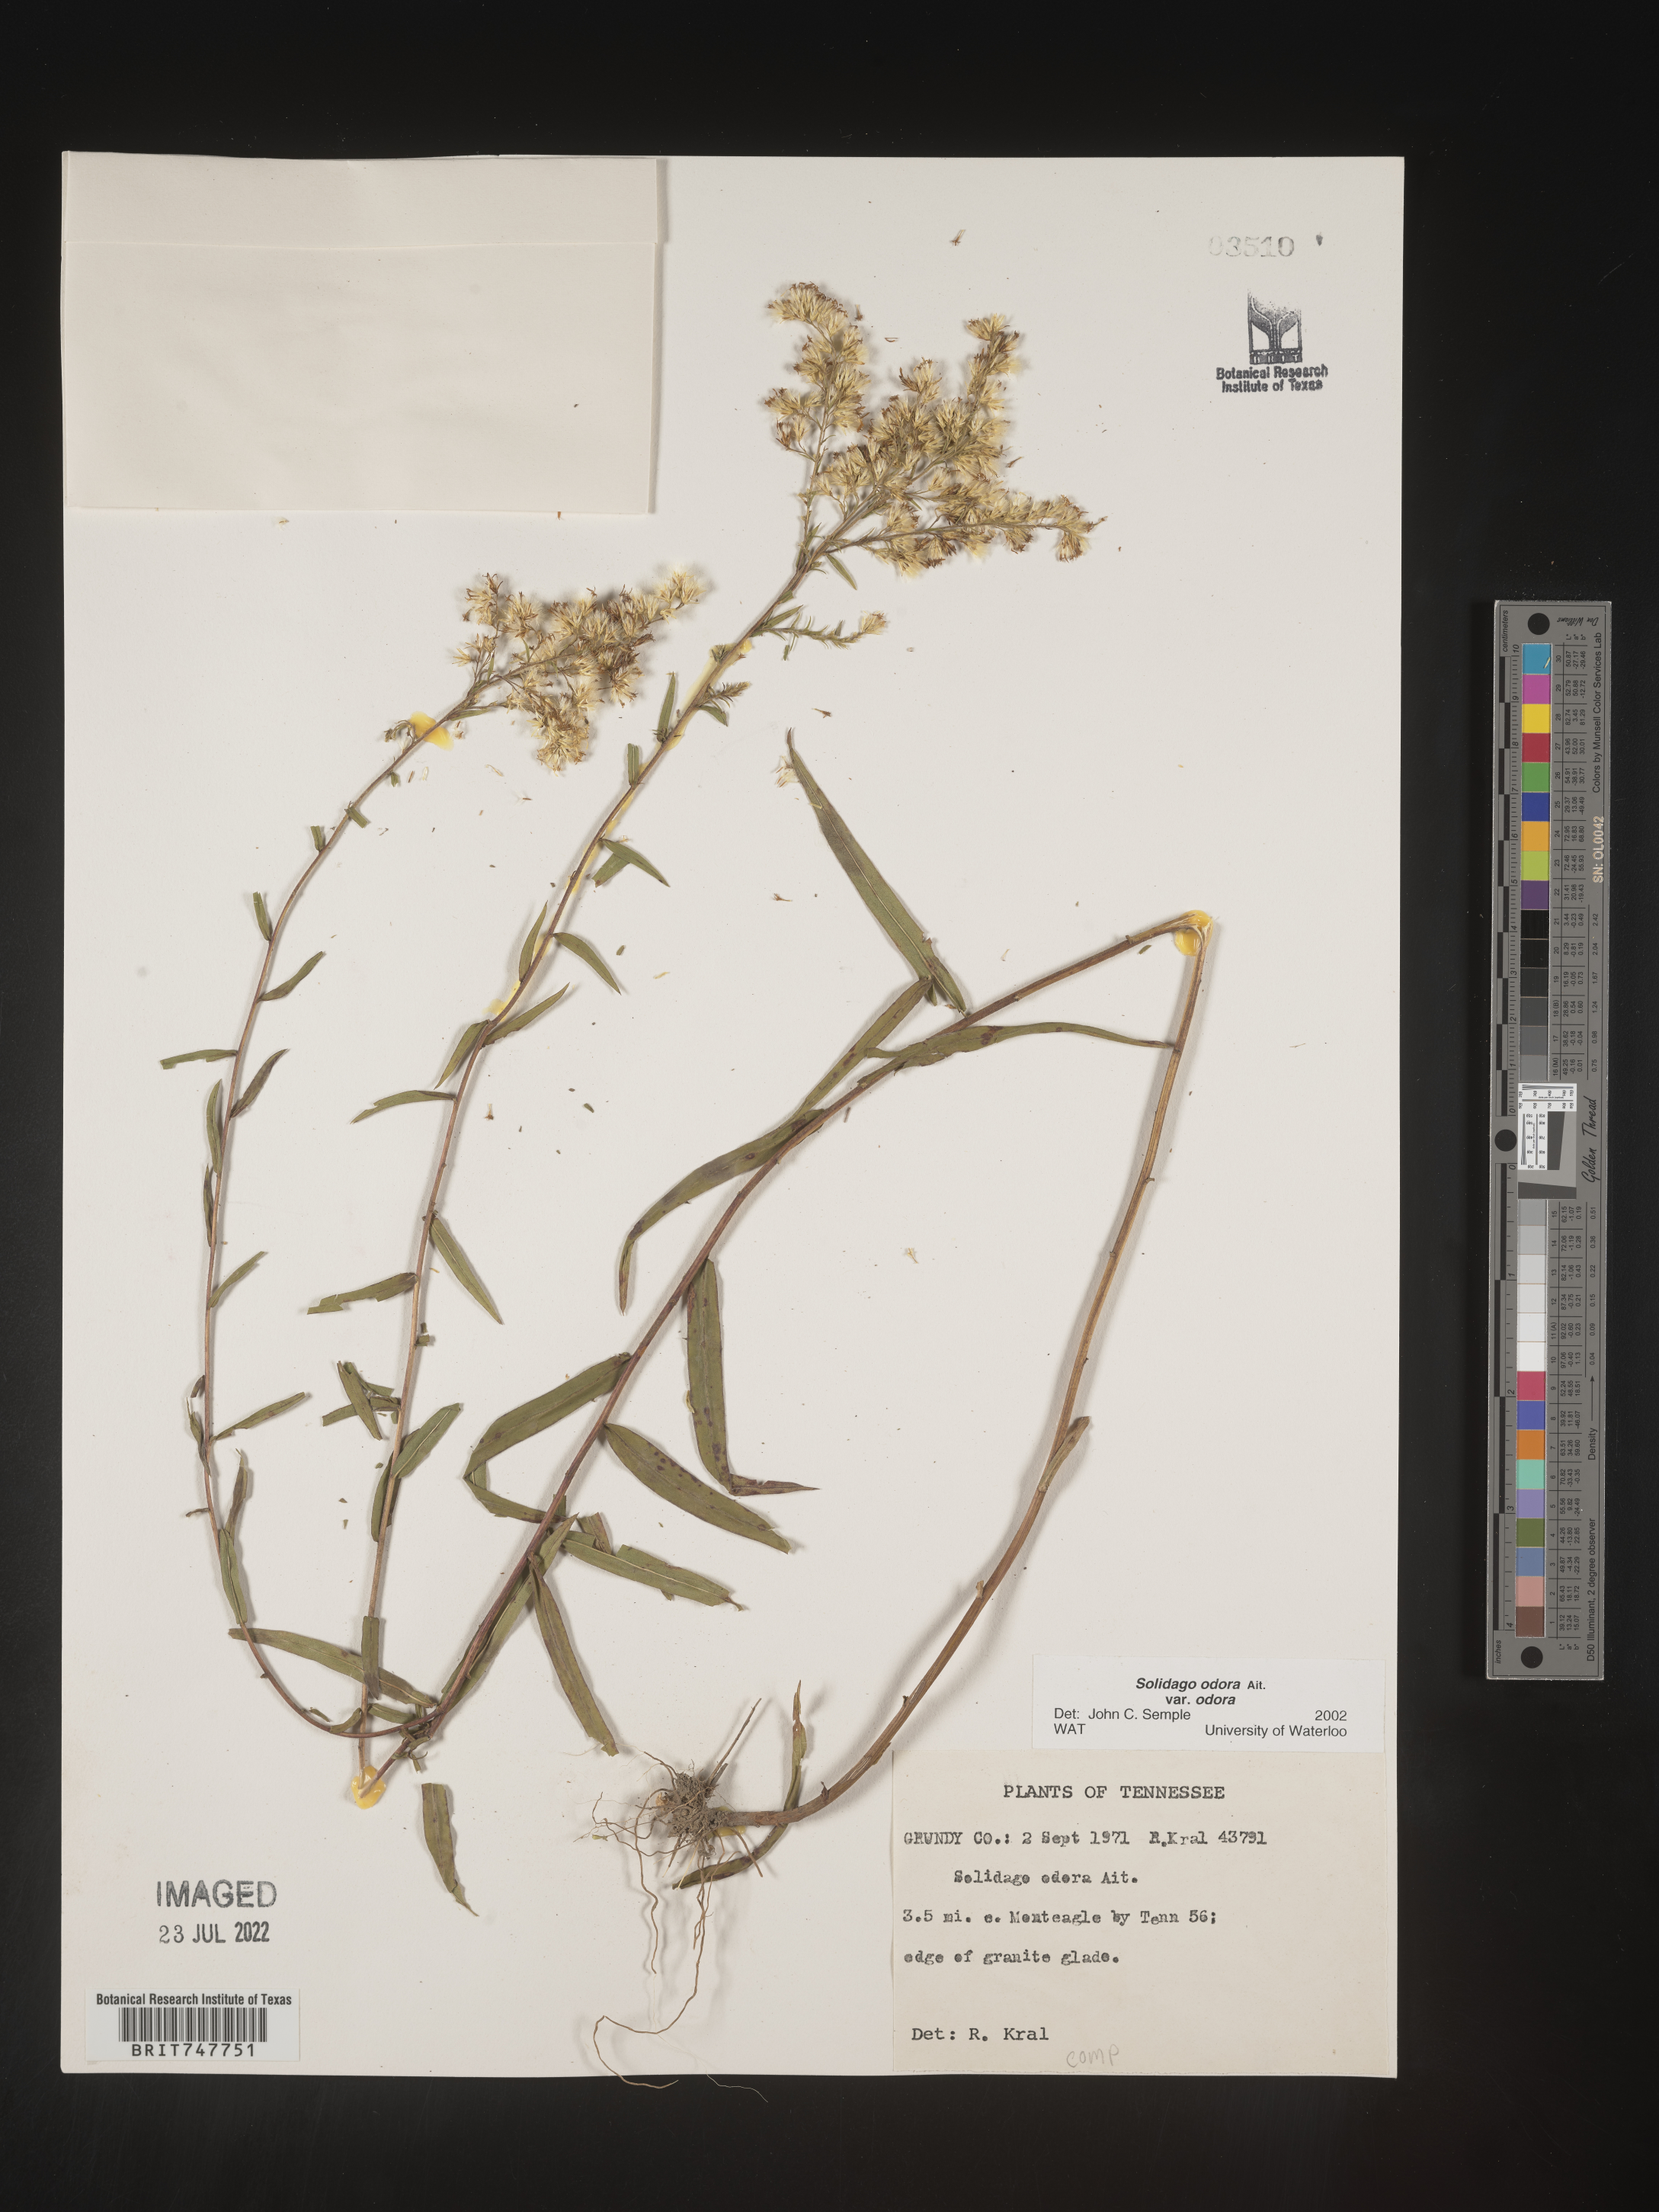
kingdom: Plantae
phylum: Tracheophyta
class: Magnoliopsida
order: Asterales
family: Asteraceae
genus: Solidago
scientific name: Solidago nitida
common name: Shiny goldenrod
